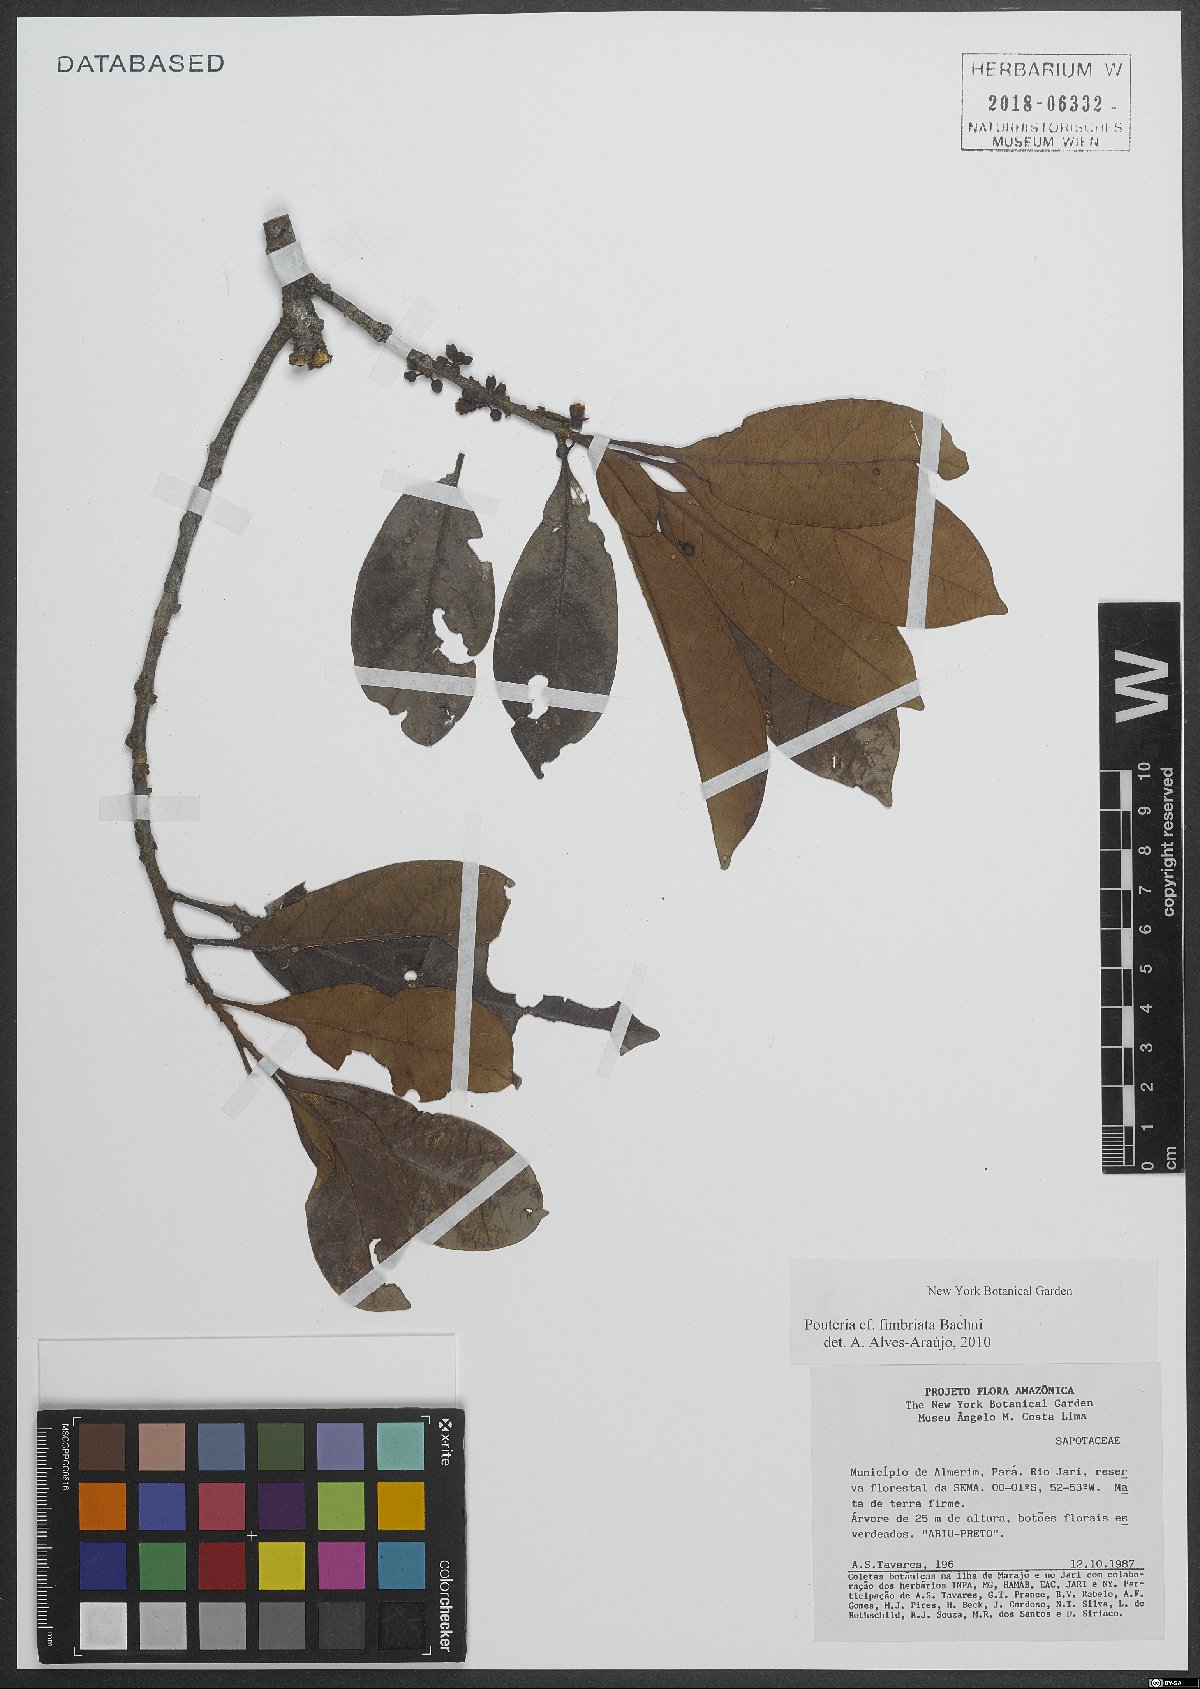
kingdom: Plantae
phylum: Tracheophyta
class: Magnoliopsida
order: Ericales
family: Sapotaceae
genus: Pouteria
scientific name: Pouteria fimbriata
